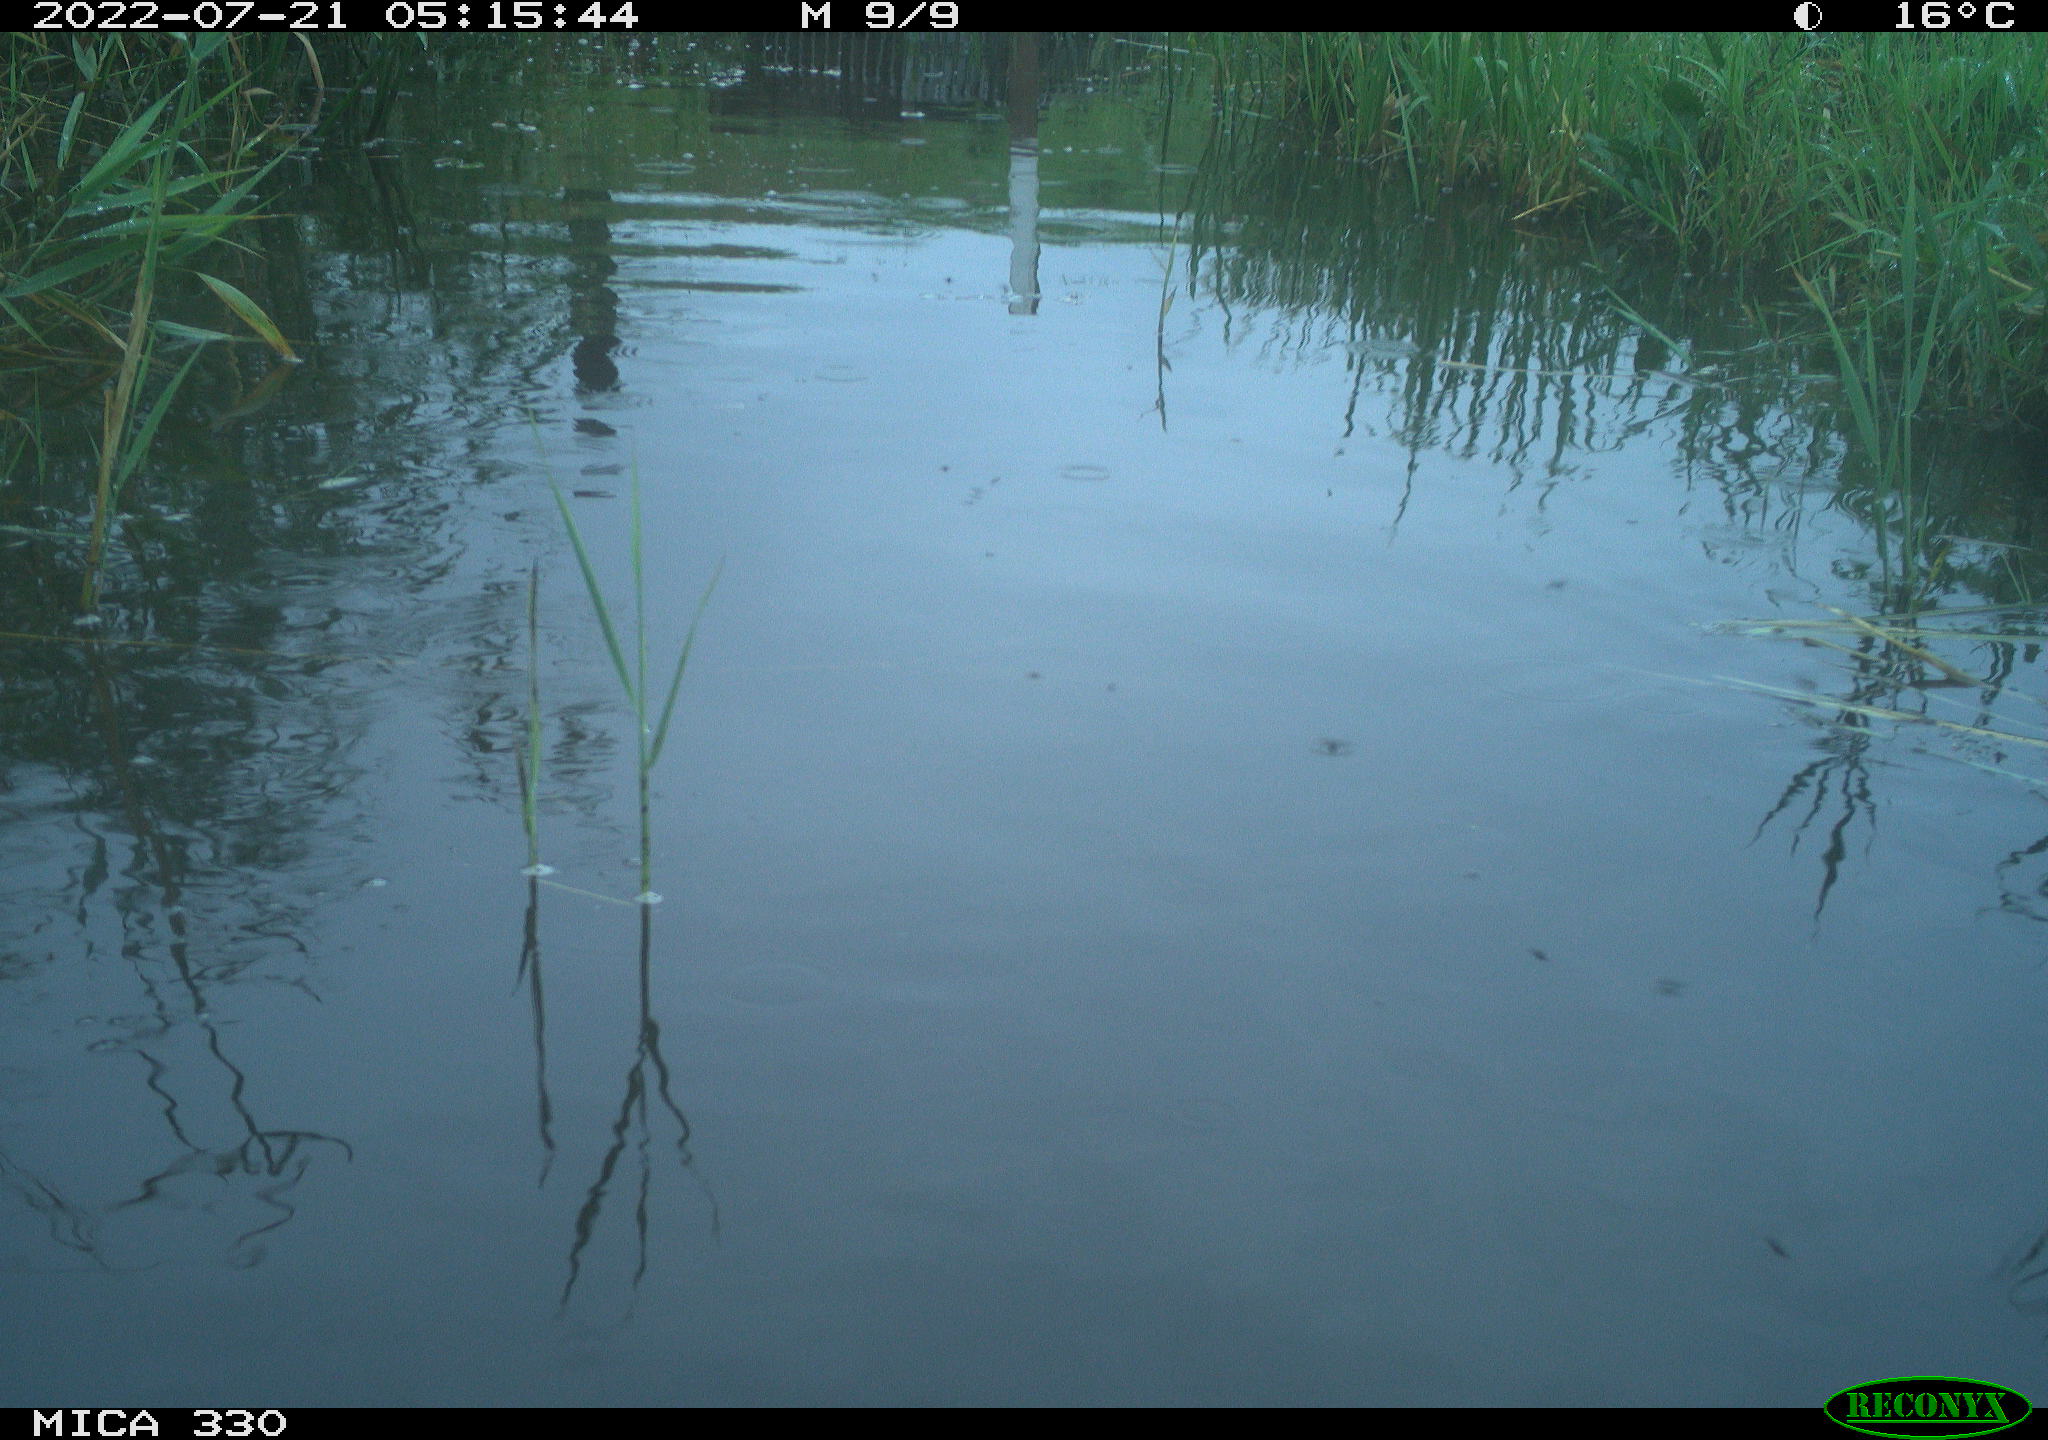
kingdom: Animalia
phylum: Chordata
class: Aves
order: Anseriformes
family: Anatidae
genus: Mareca
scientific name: Mareca strepera
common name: Gadwall
